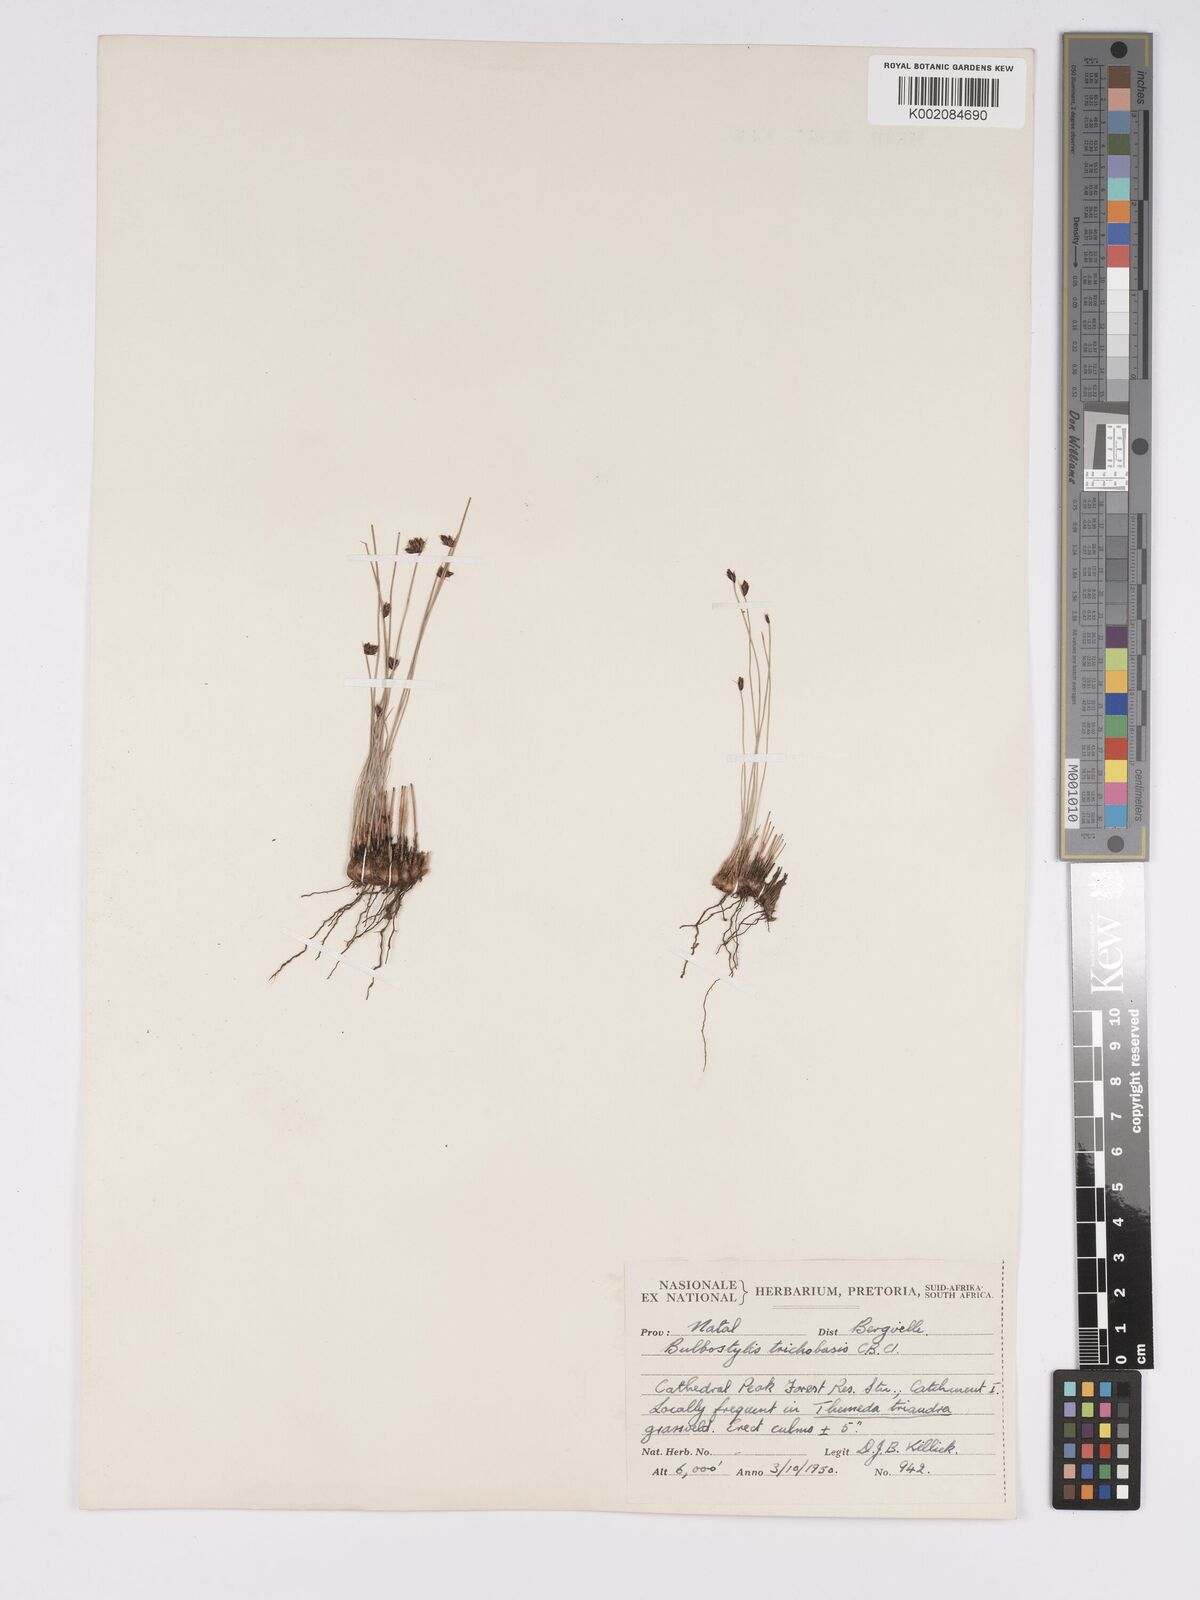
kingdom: Plantae
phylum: Tracheophyta
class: Liliopsida
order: Poales
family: Cyperaceae
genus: Bulbostylis
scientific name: Bulbostylis trichobasis
